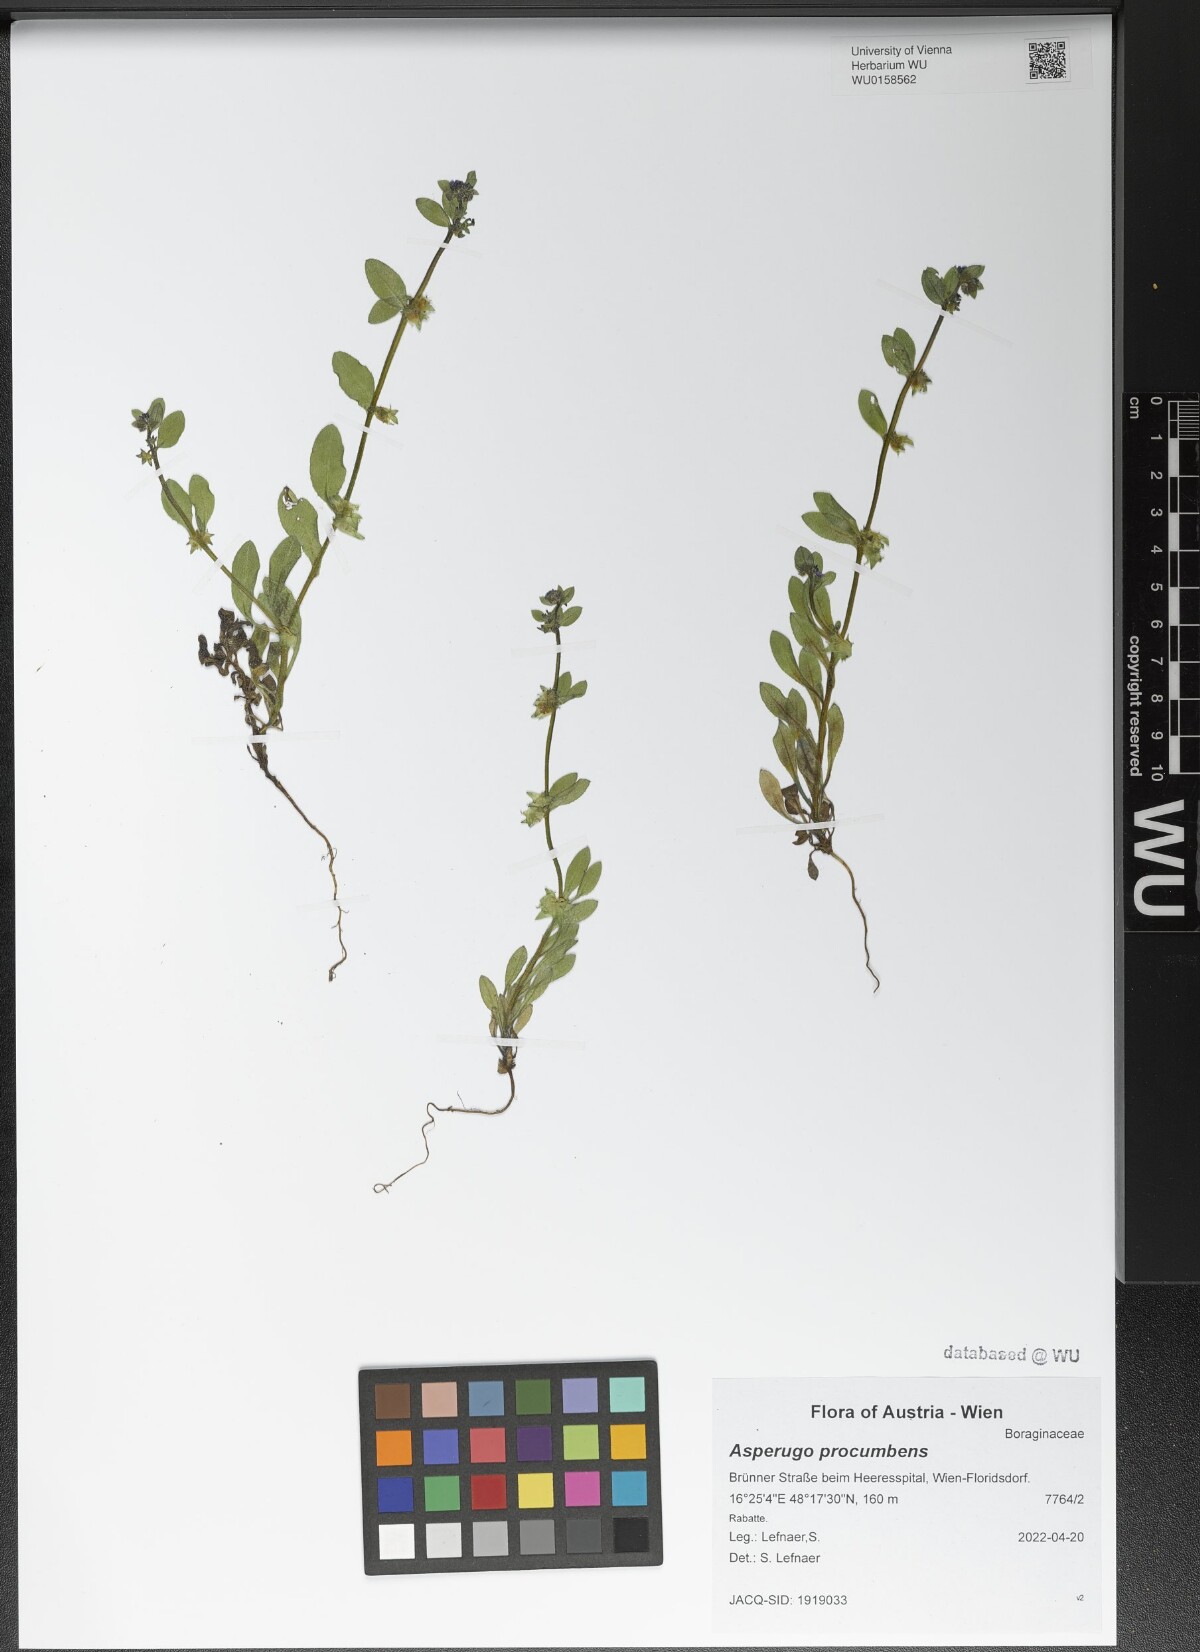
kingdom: Plantae
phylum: Tracheophyta
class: Magnoliopsida
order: Boraginales
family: Boraginaceae
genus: Asperugo
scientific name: Asperugo procumbens
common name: Madwort
